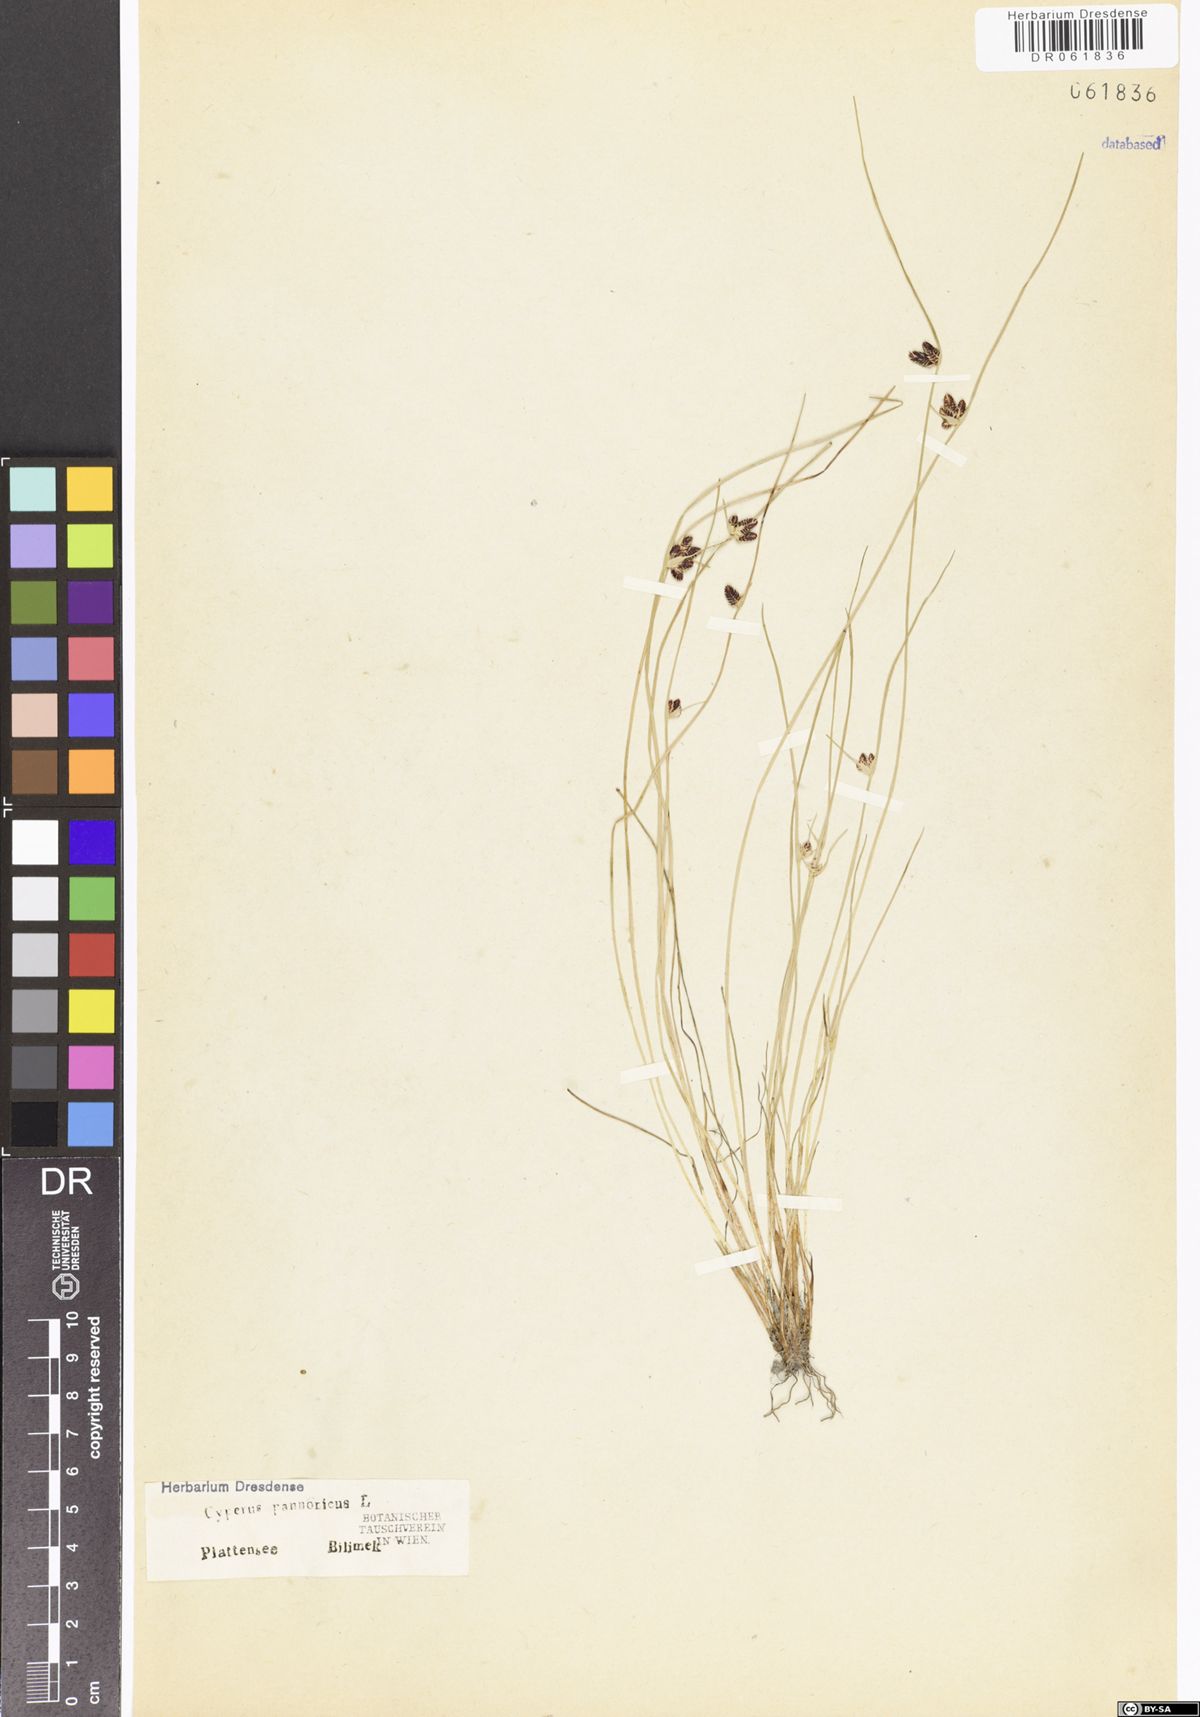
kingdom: Plantae
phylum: Tracheophyta
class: Liliopsida
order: Poales
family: Cyperaceae
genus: Cyperus
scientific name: Cyperus pannonicus
